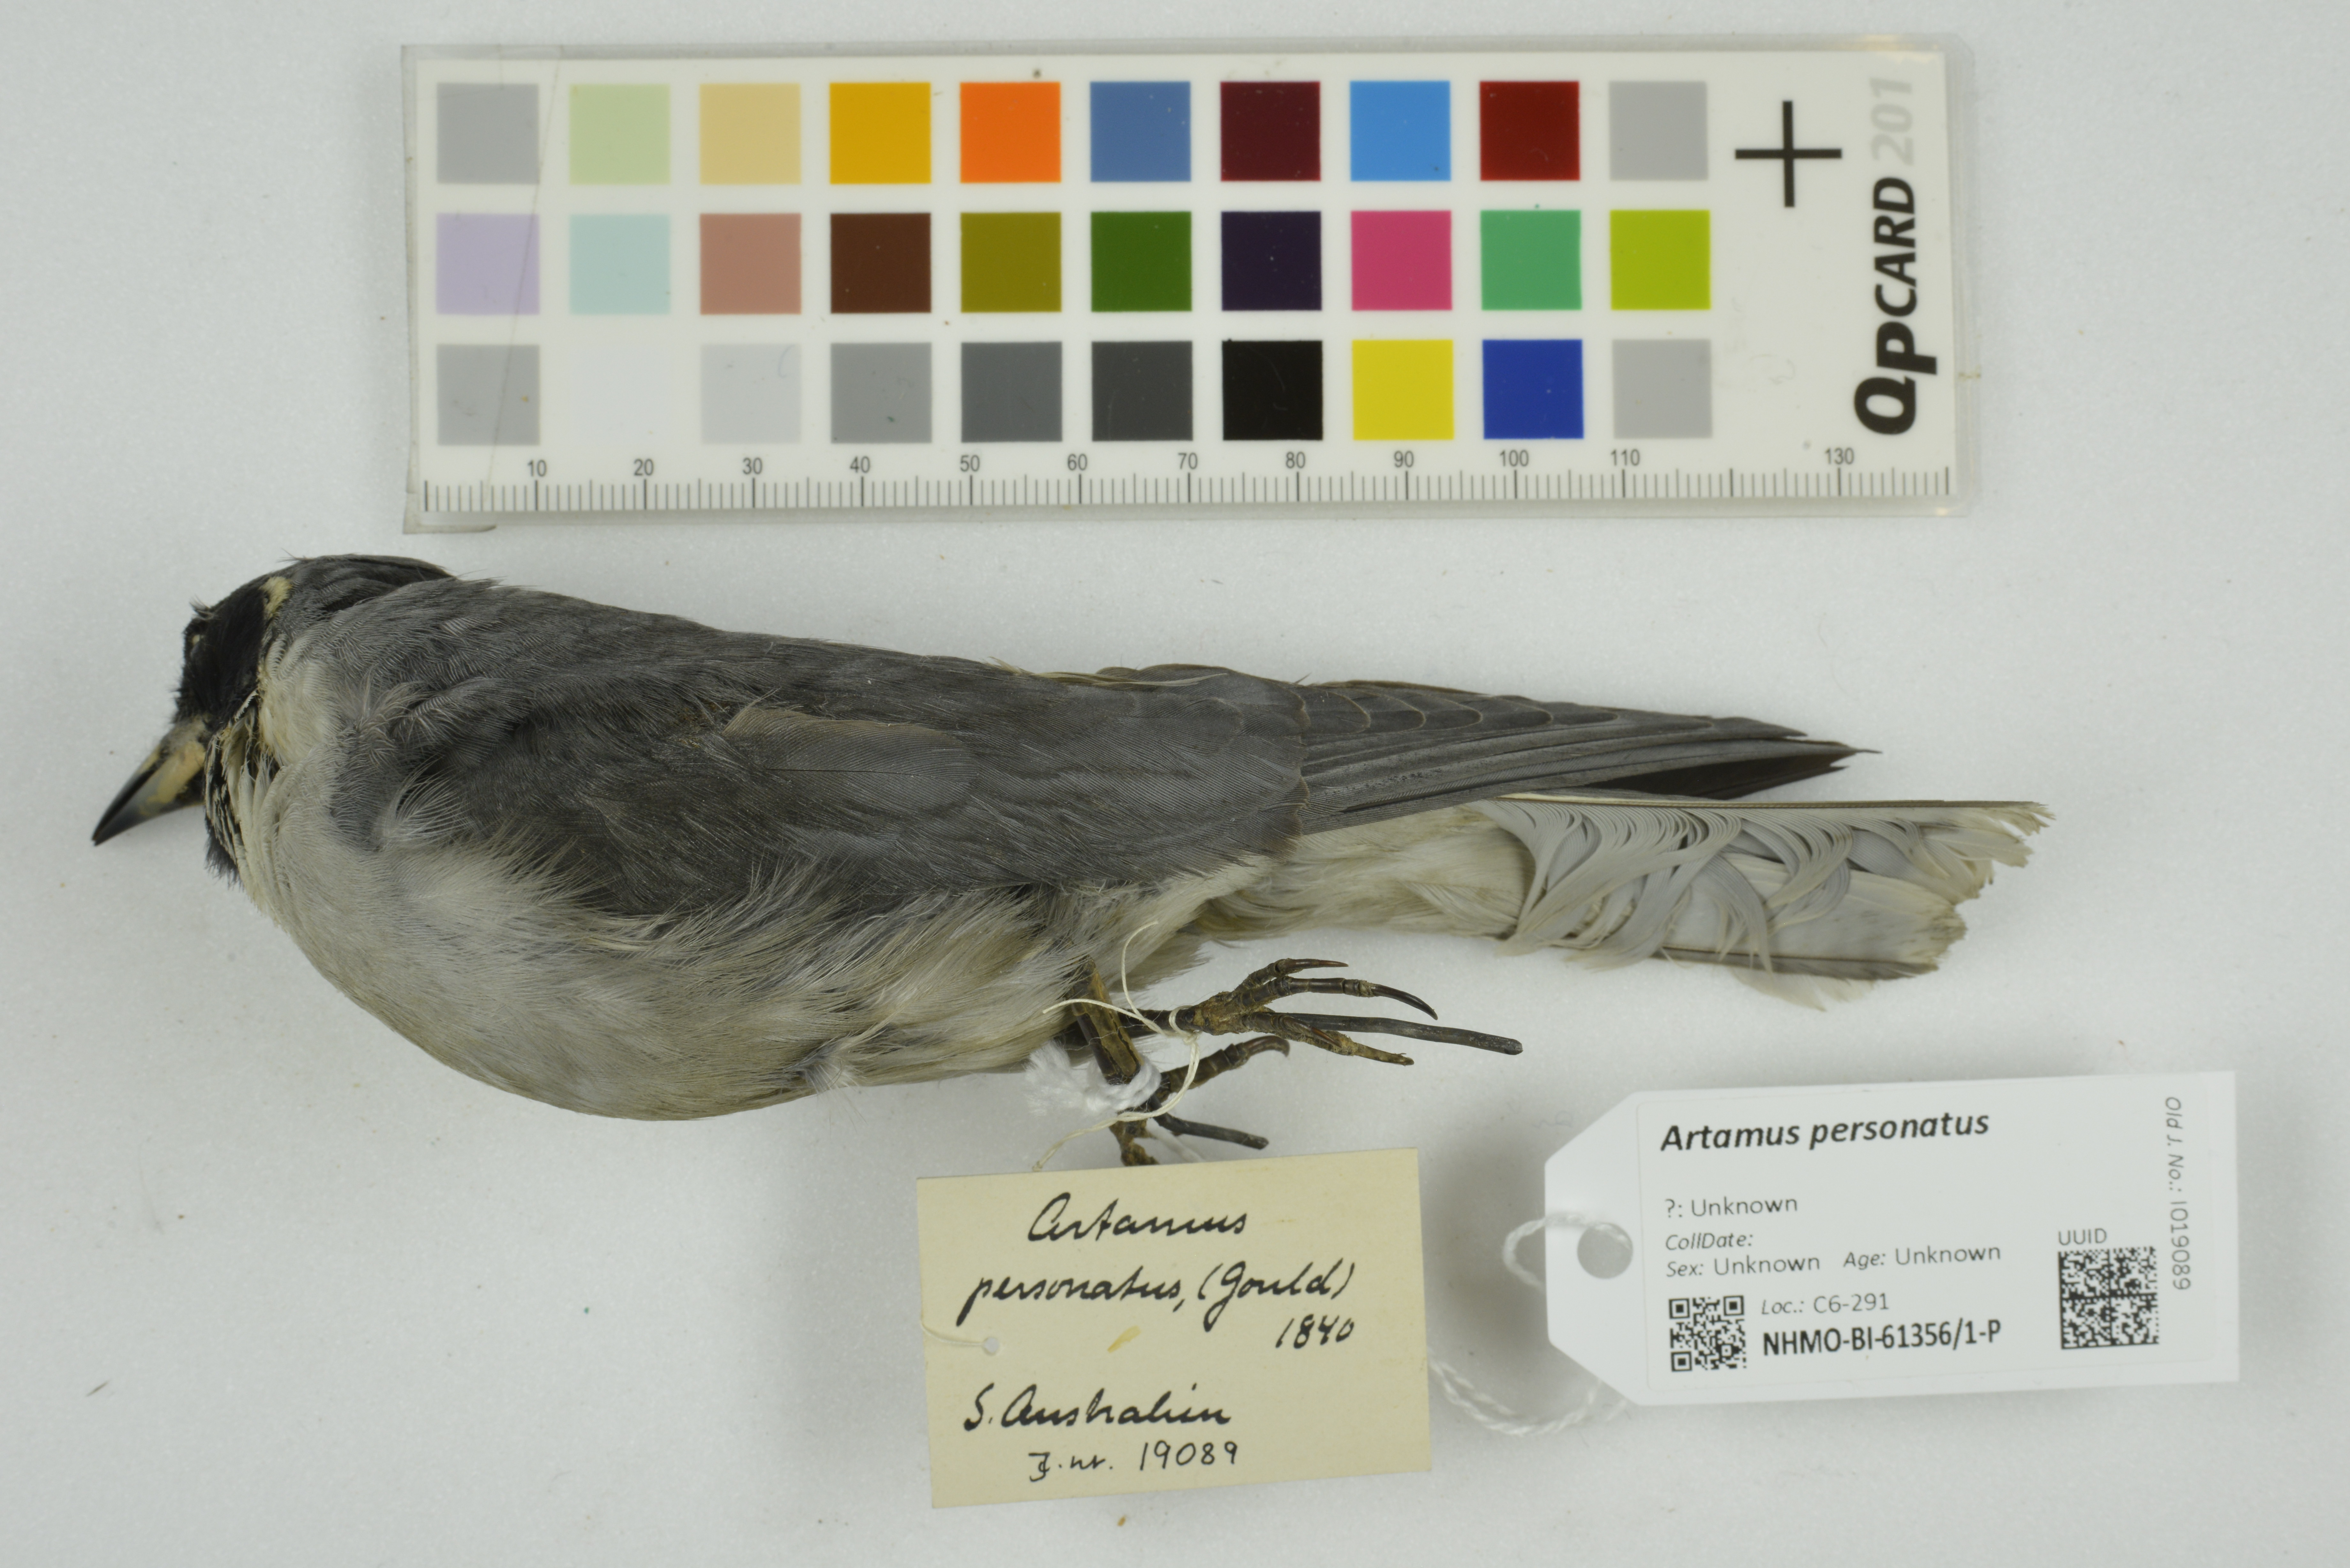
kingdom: Animalia
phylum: Chordata
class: Aves
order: Passeriformes
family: Artamidae
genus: Artamus
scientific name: Artamus personatus
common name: Masked woodswallow
